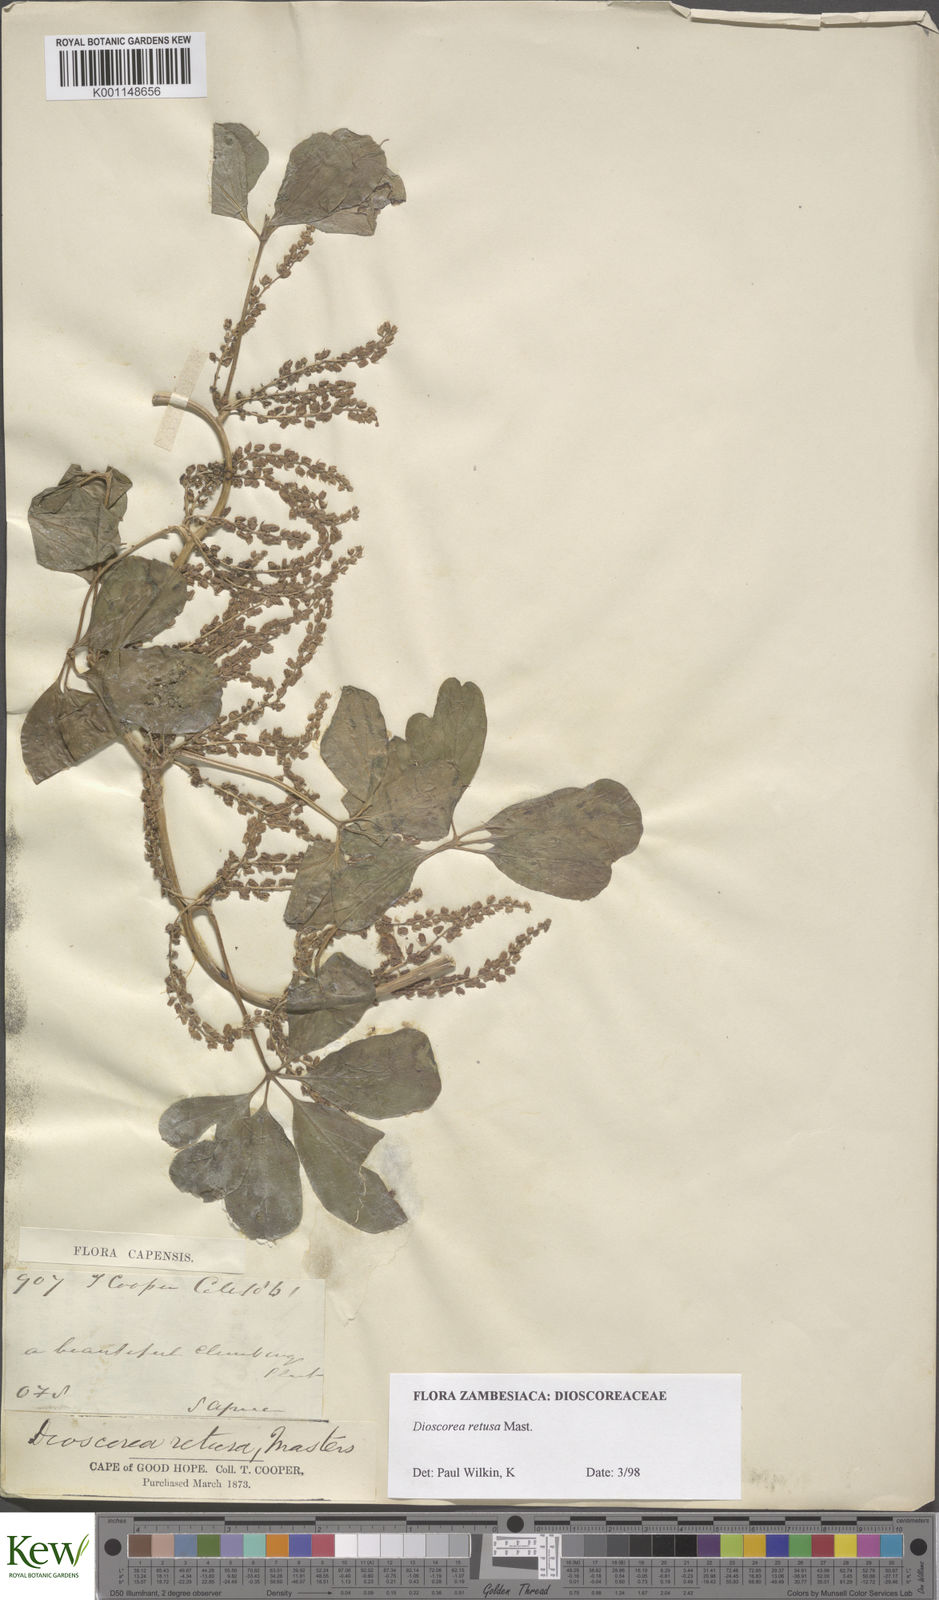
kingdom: Plantae
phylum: Tracheophyta
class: Liliopsida
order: Dioscoreales
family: Dioscoreaceae
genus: Dioscorea
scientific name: Dioscorea retusa
